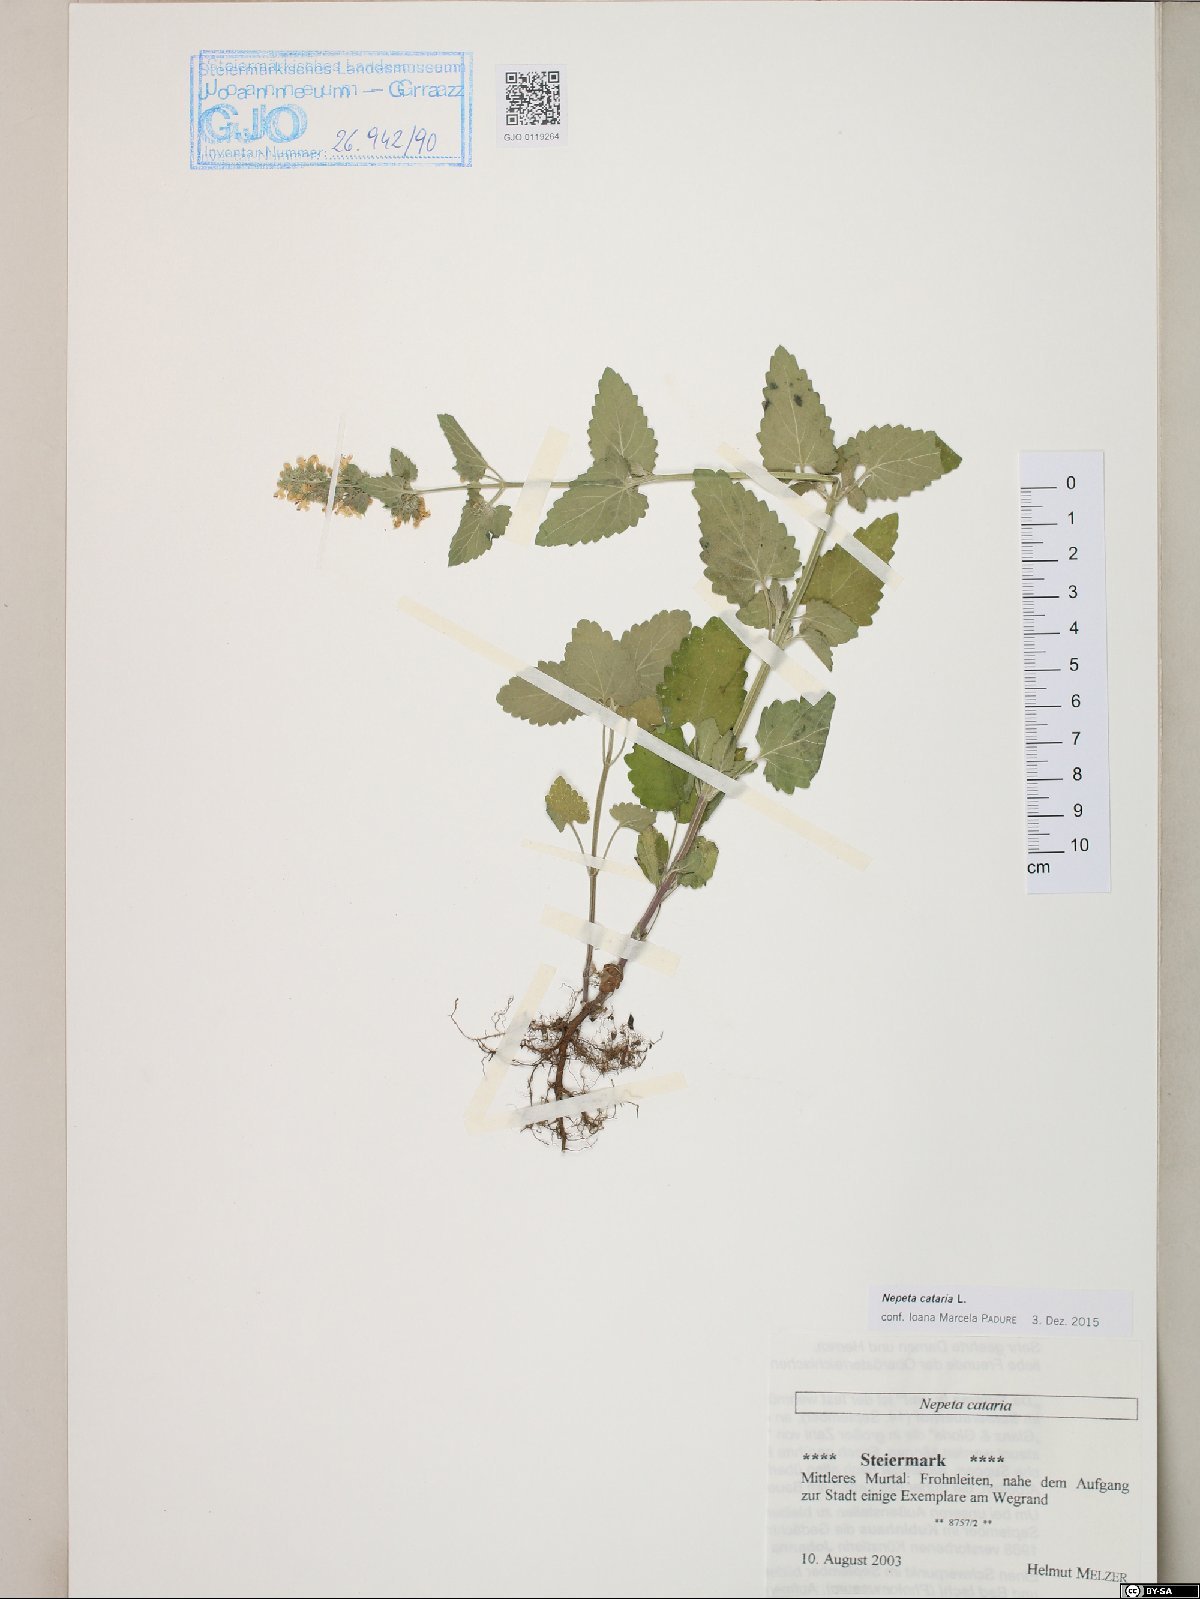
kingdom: Plantae
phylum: Tracheophyta
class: Magnoliopsida
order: Lamiales
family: Lamiaceae
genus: Nepeta
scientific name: Nepeta cataria
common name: Catnip
